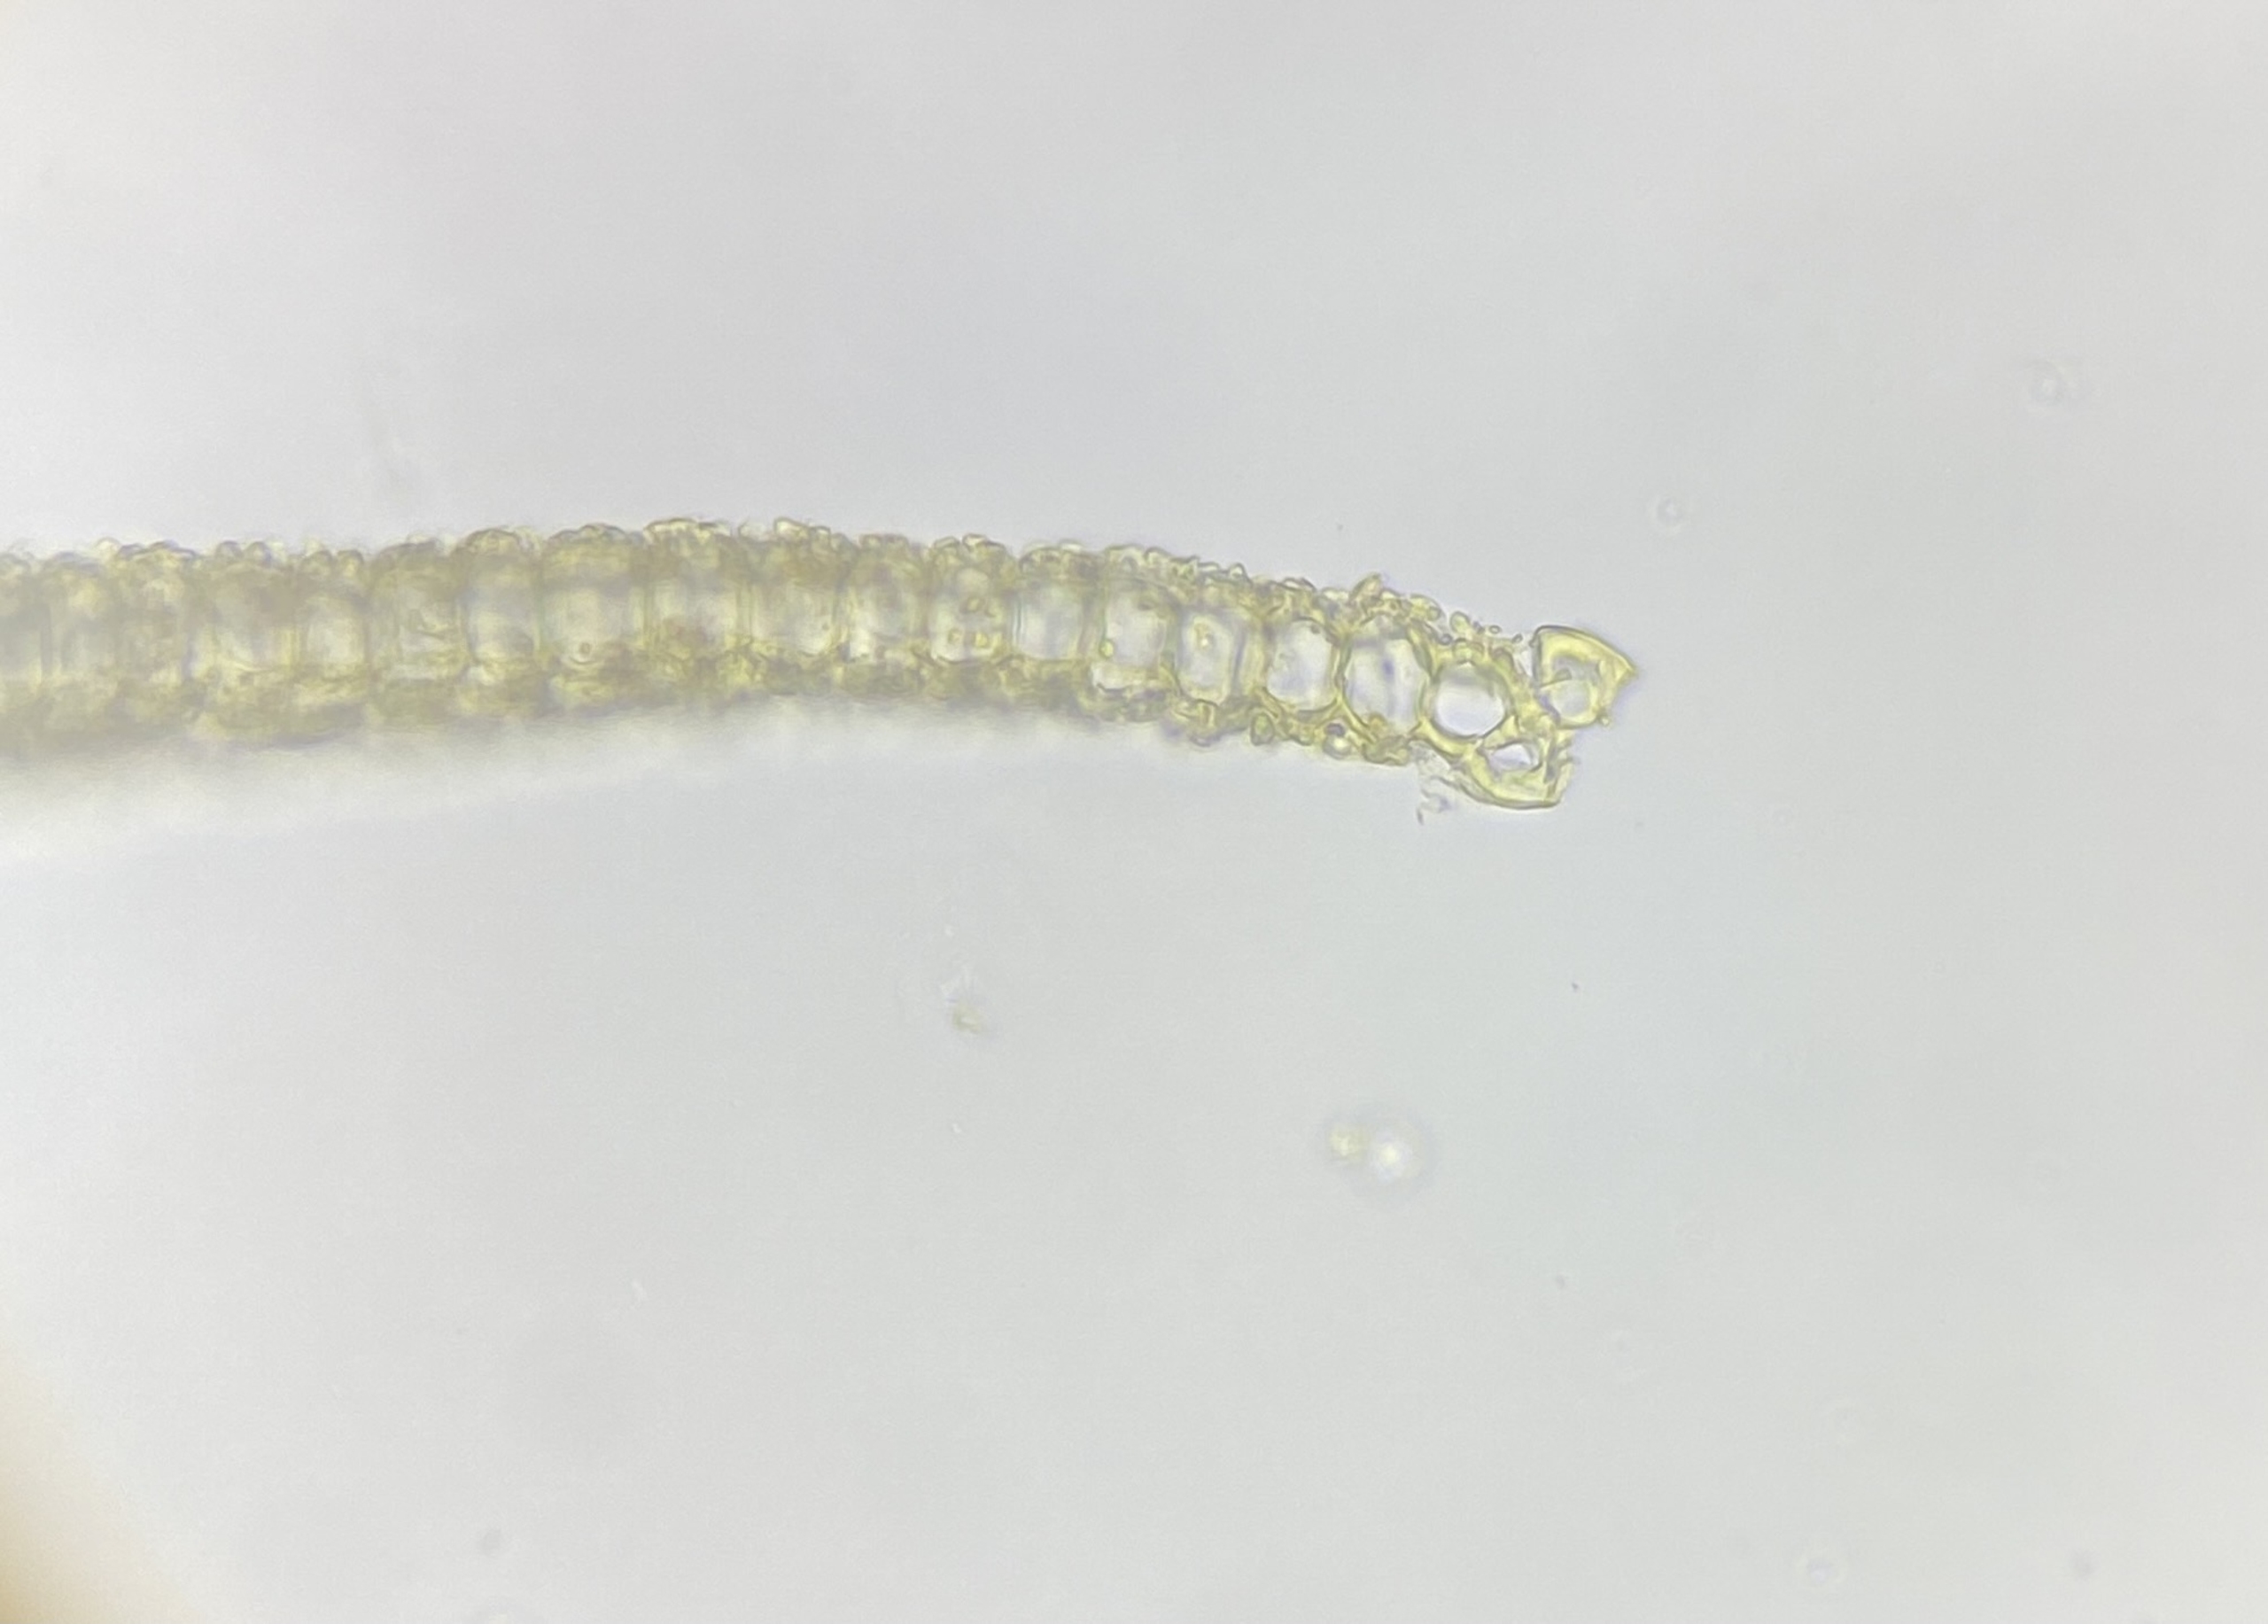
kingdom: Plantae
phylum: Bryophyta
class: Bryopsida
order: Pottiales
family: Pottiaceae
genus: Tortula
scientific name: Tortula schimperi
